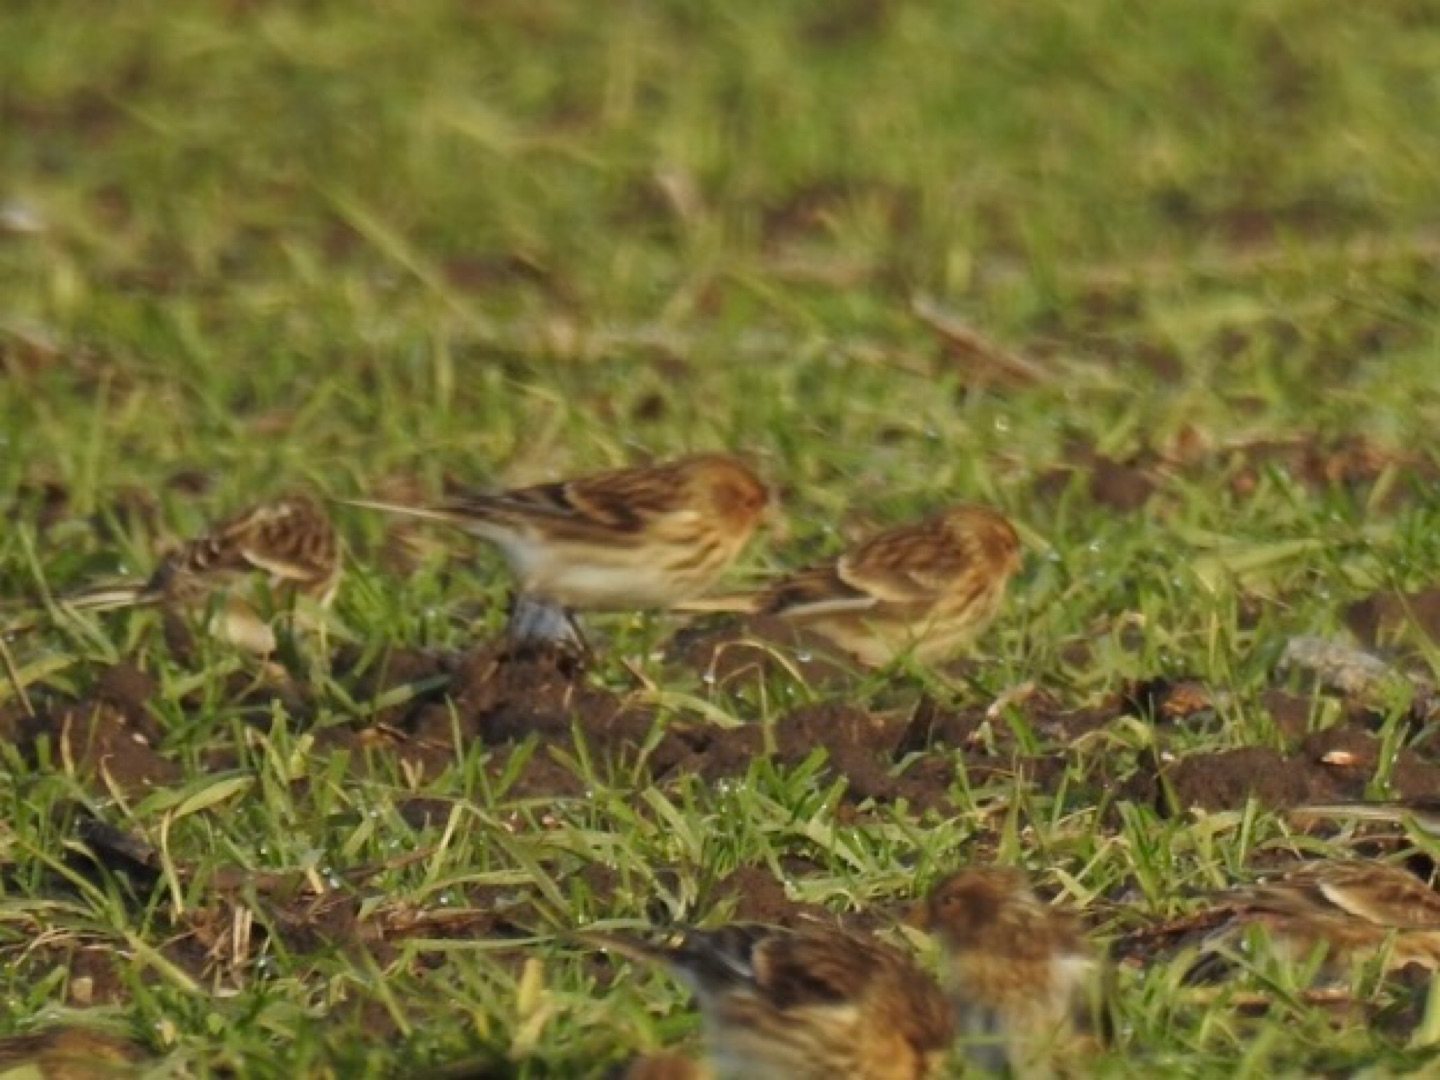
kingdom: Animalia
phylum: Chordata
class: Aves
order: Passeriformes
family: Fringillidae
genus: Linaria
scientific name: Linaria flavirostris
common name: Bjergirisk
